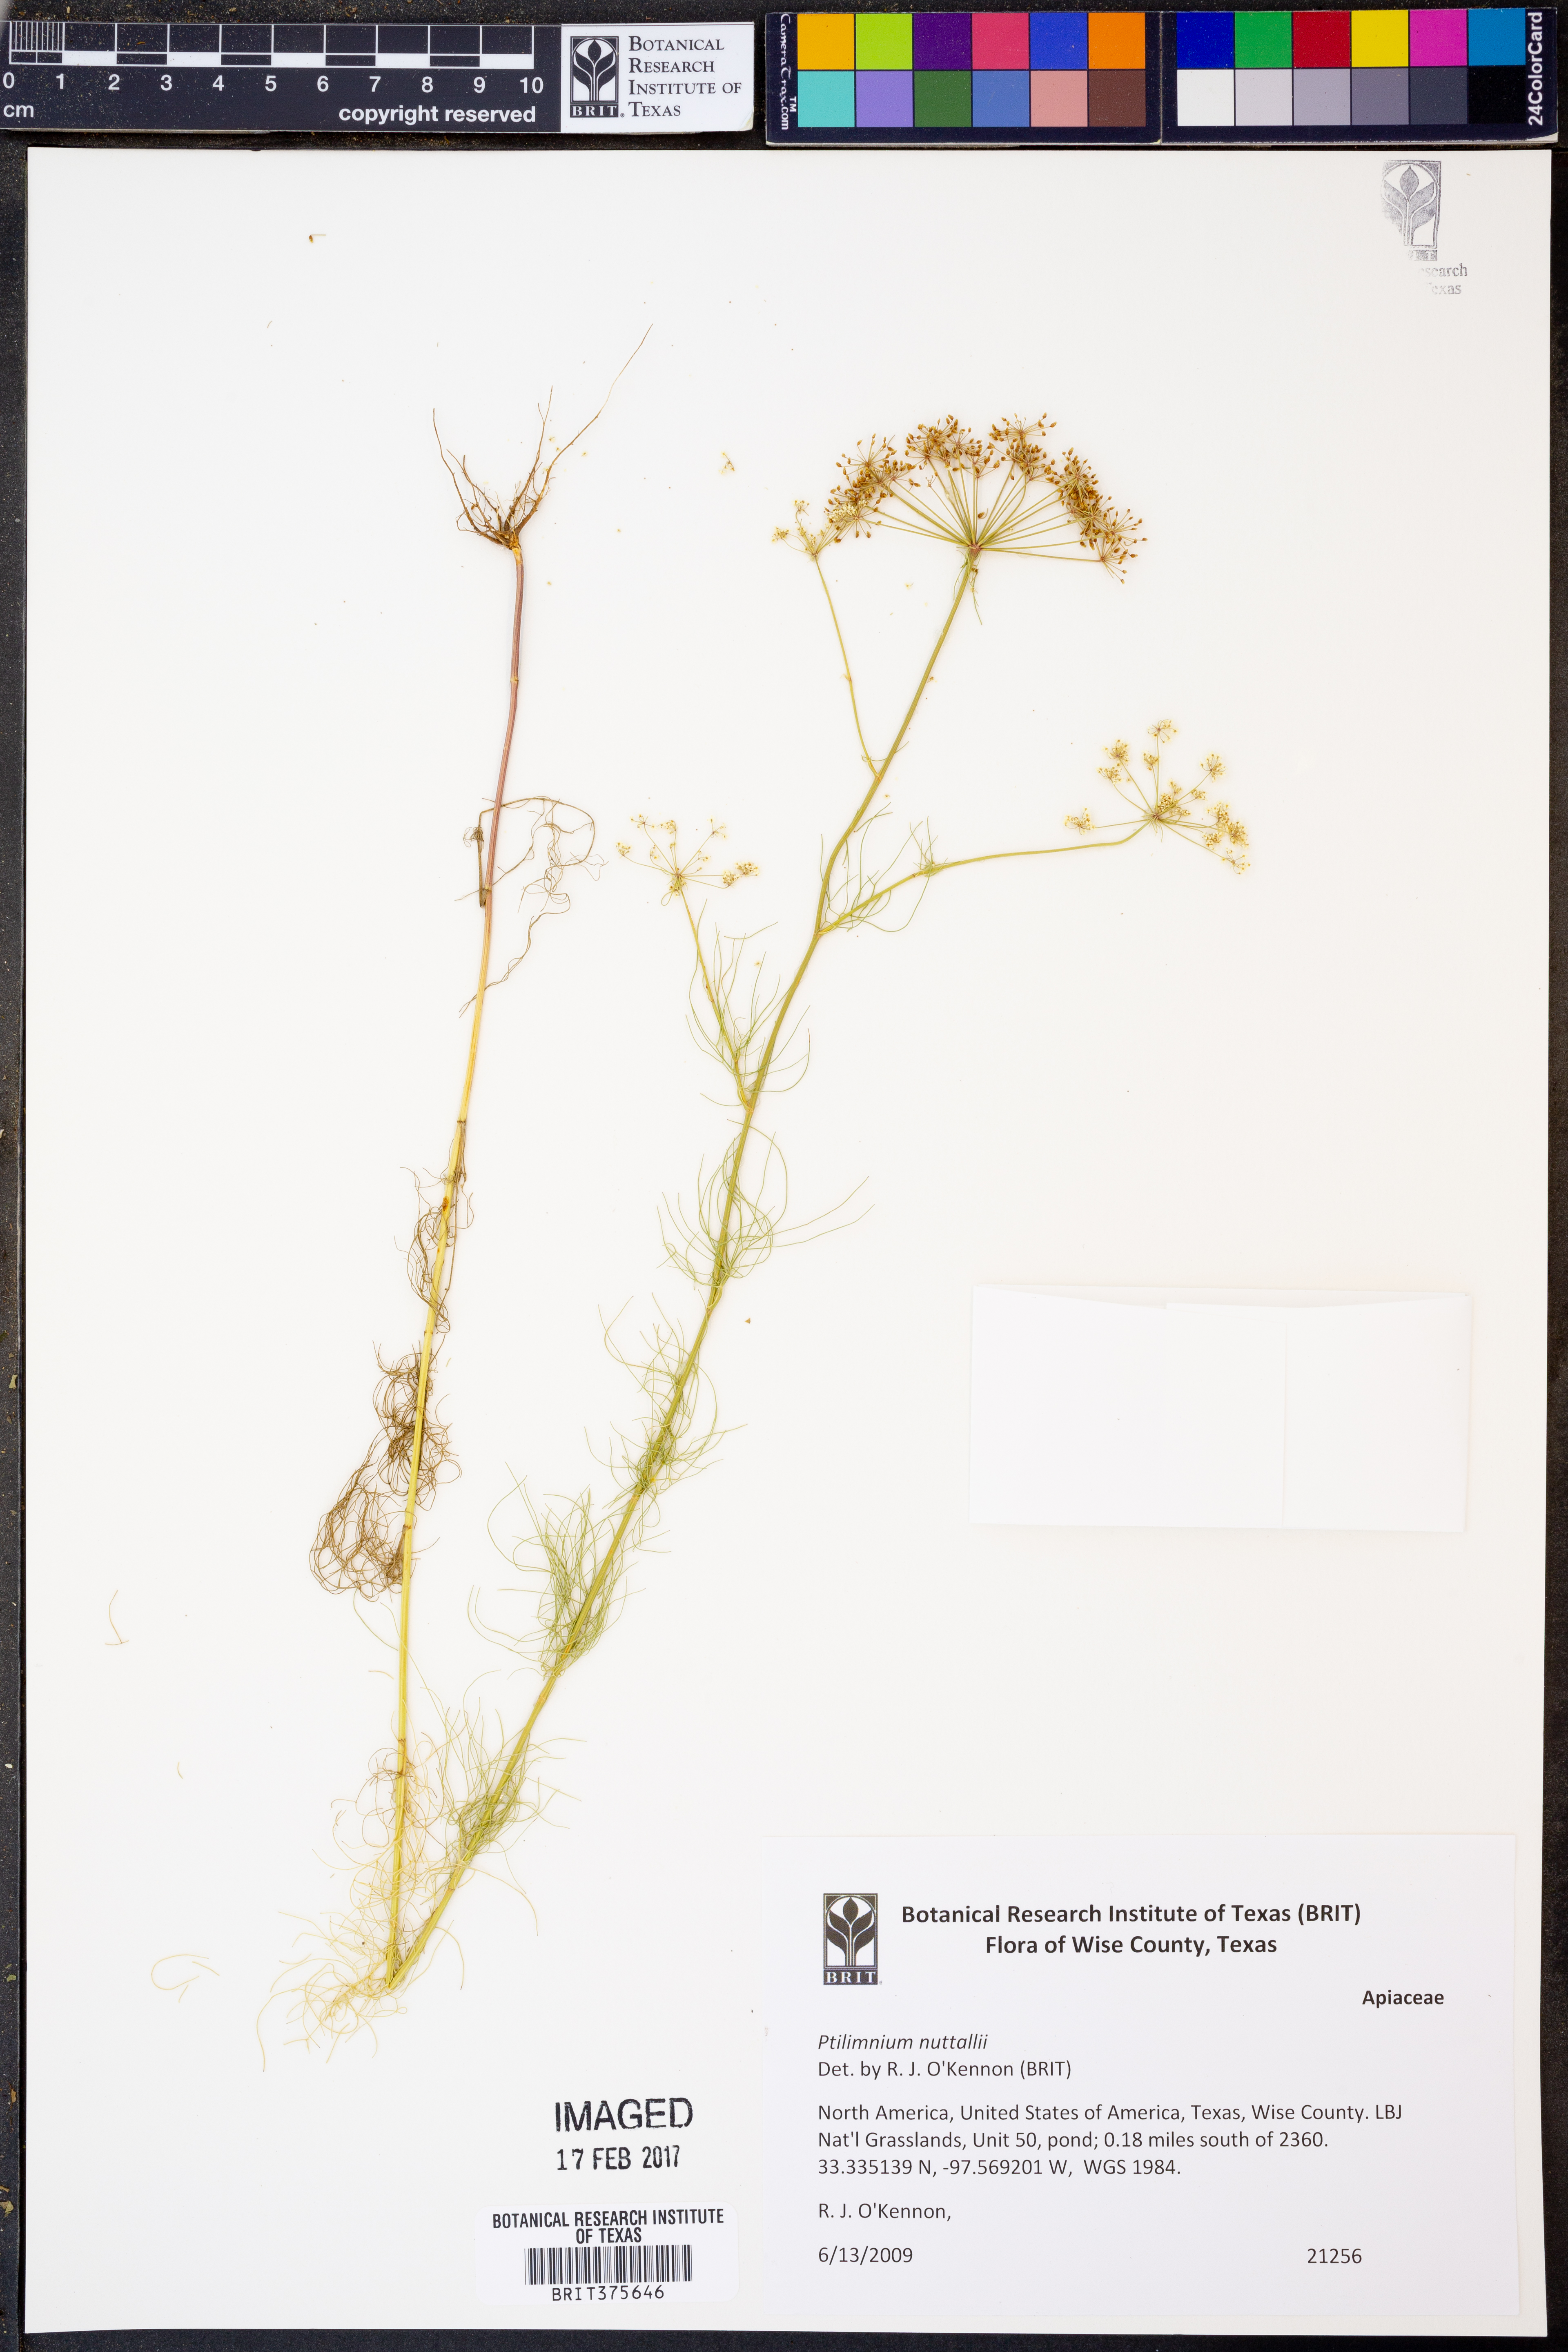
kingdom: Plantae
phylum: Tracheophyta
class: Magnoliopsida
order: Apiales
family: Apiaceae
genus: Ptilimnium
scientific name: Ptilimnium nuttallii
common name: Ozark bishop's-weed
